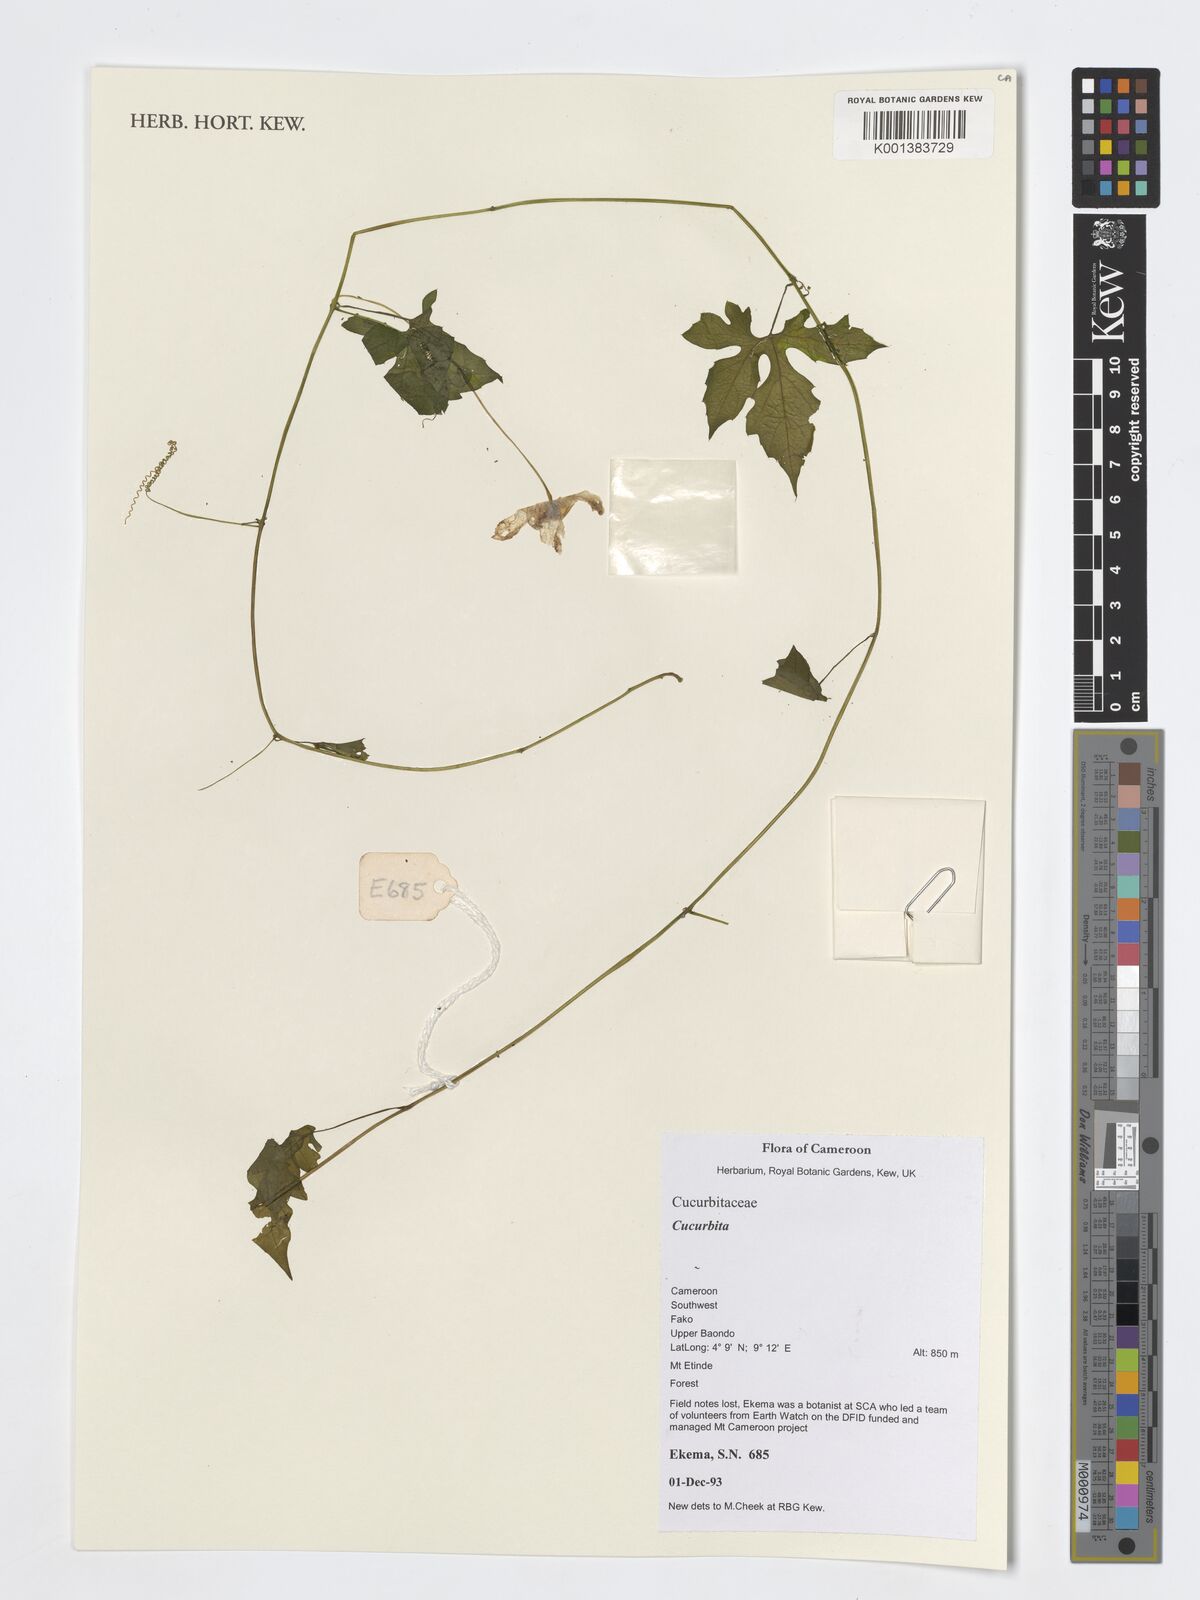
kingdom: Plantae
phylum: Tracheophyta
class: Magnoliopsida
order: Cucurbitales
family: Cucurbitaceae
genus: Cucurbita
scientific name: Cucurbita
